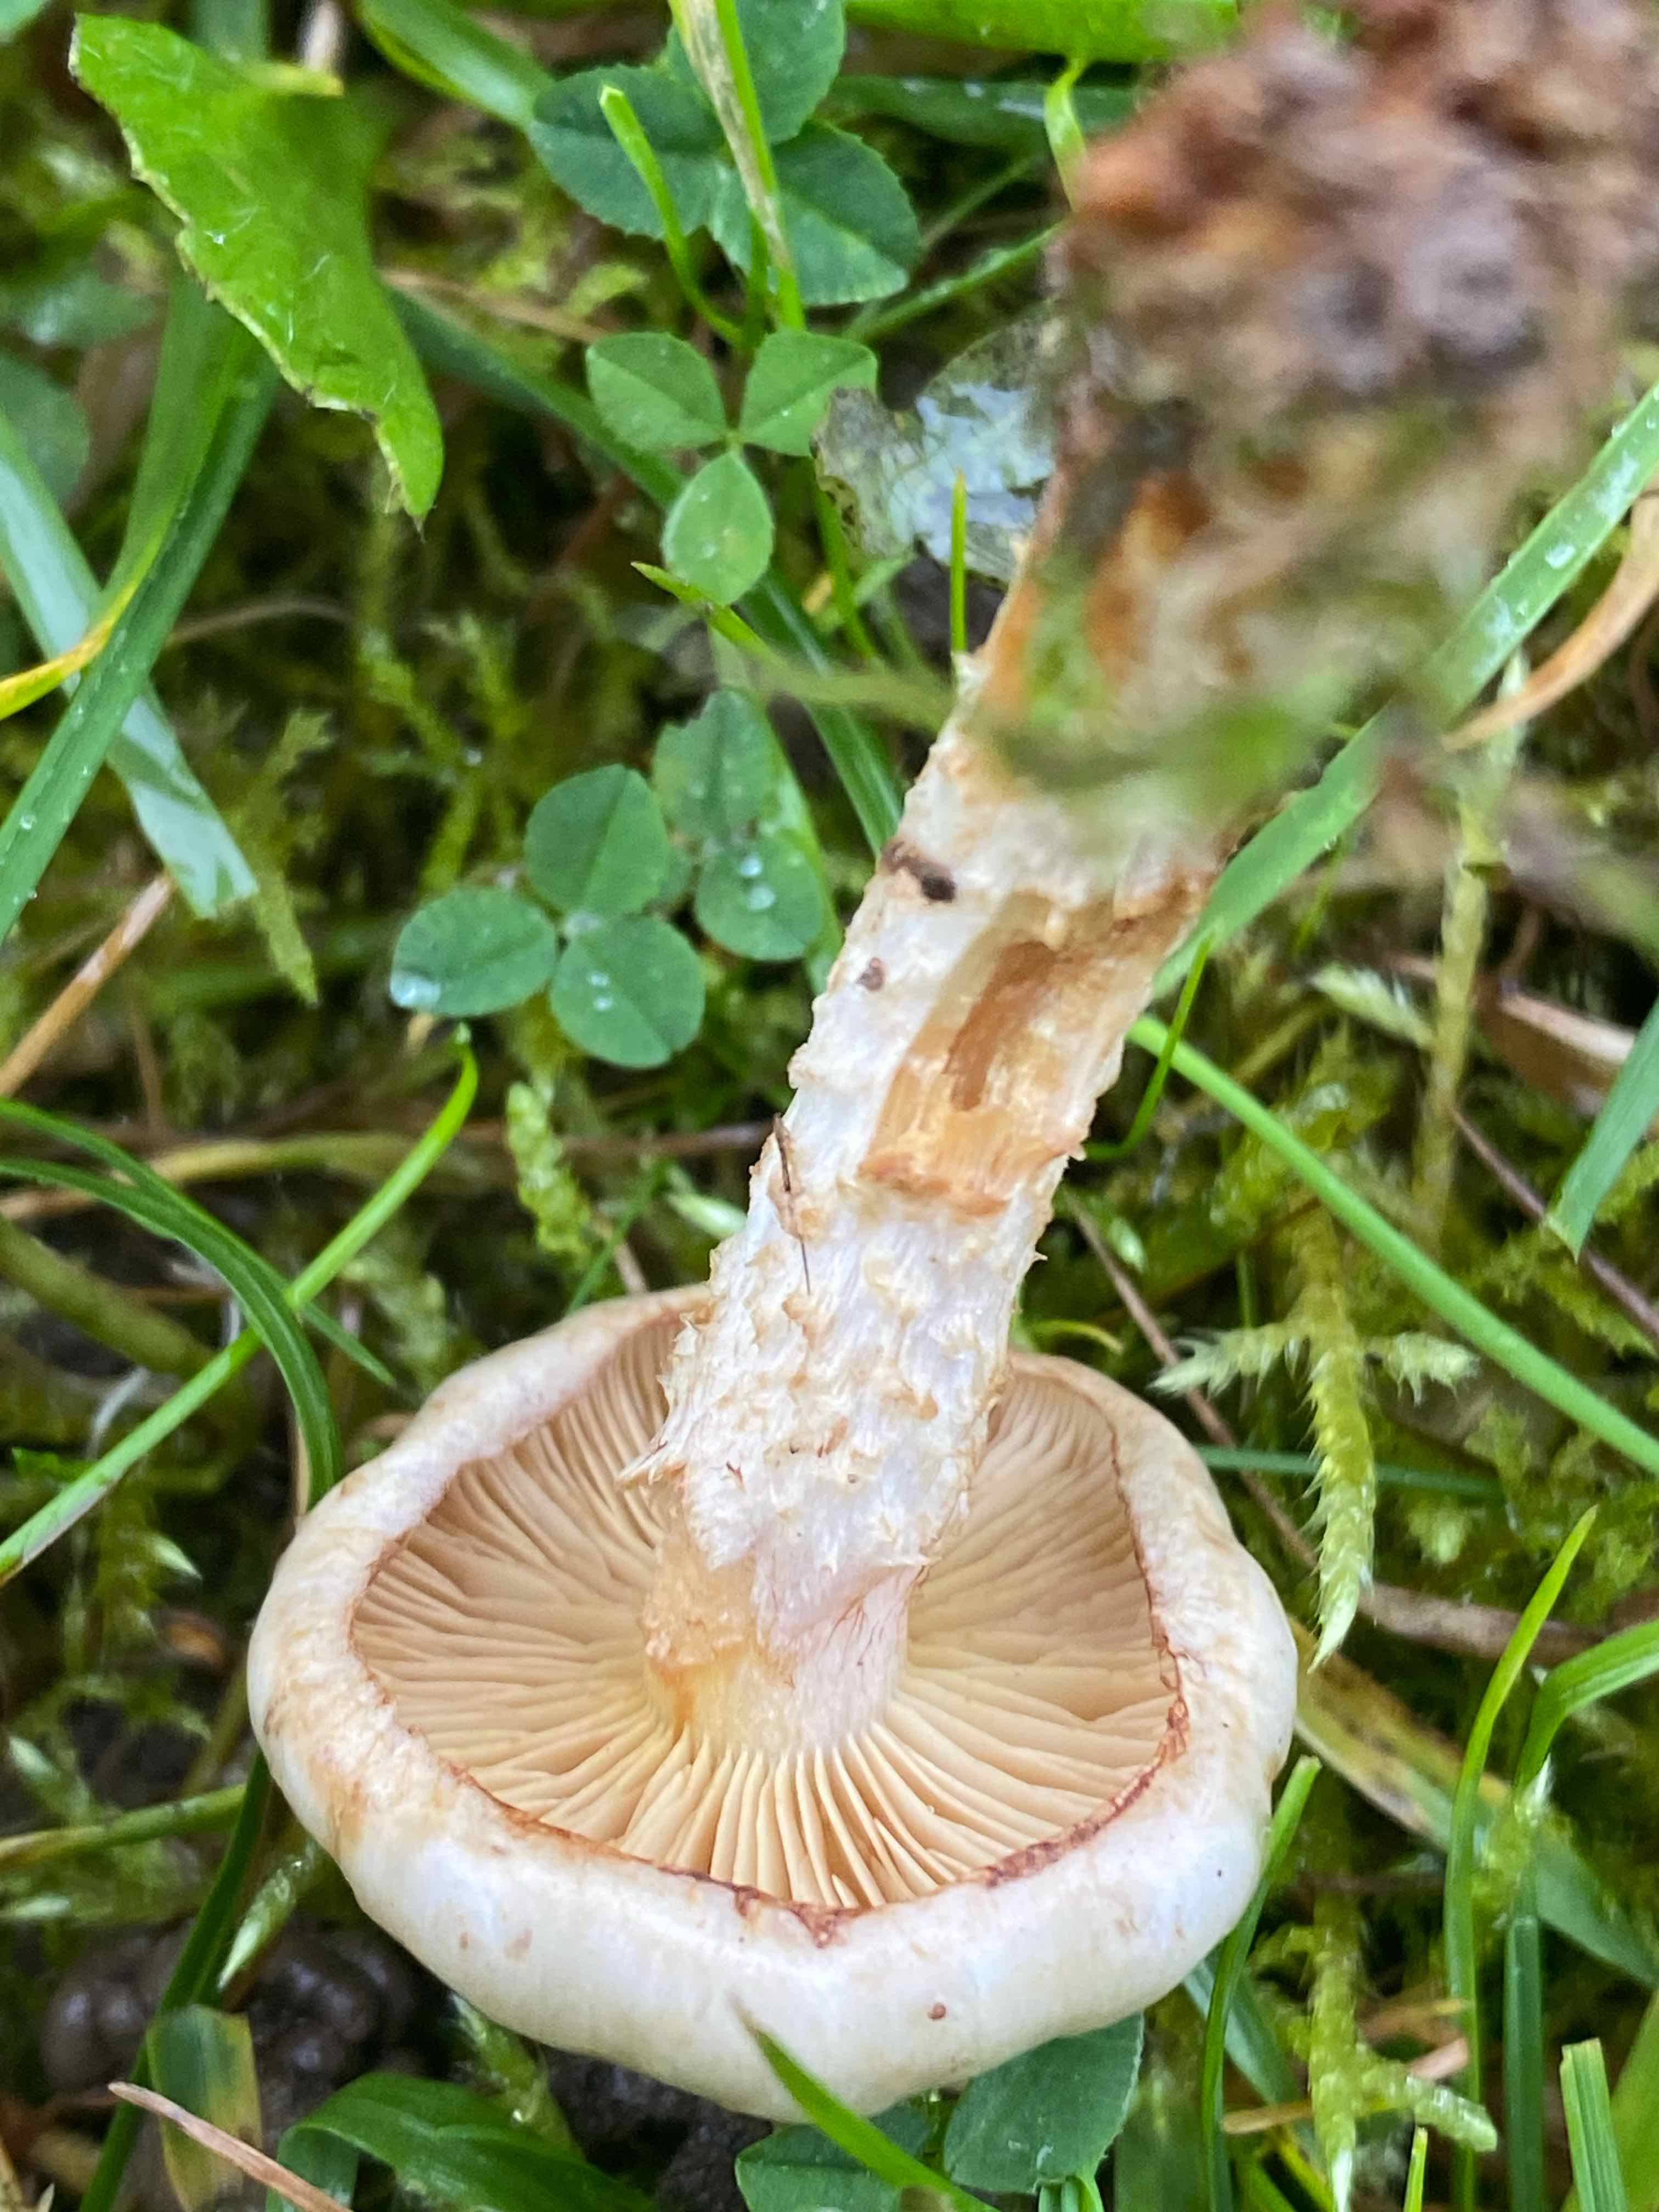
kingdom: Fungi
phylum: Basidiomycota
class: Agaricomycetes
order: Agaricales
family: Strophariaceae
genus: Pholiota
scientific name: Pholiota gummosa
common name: grøngul skælhat
